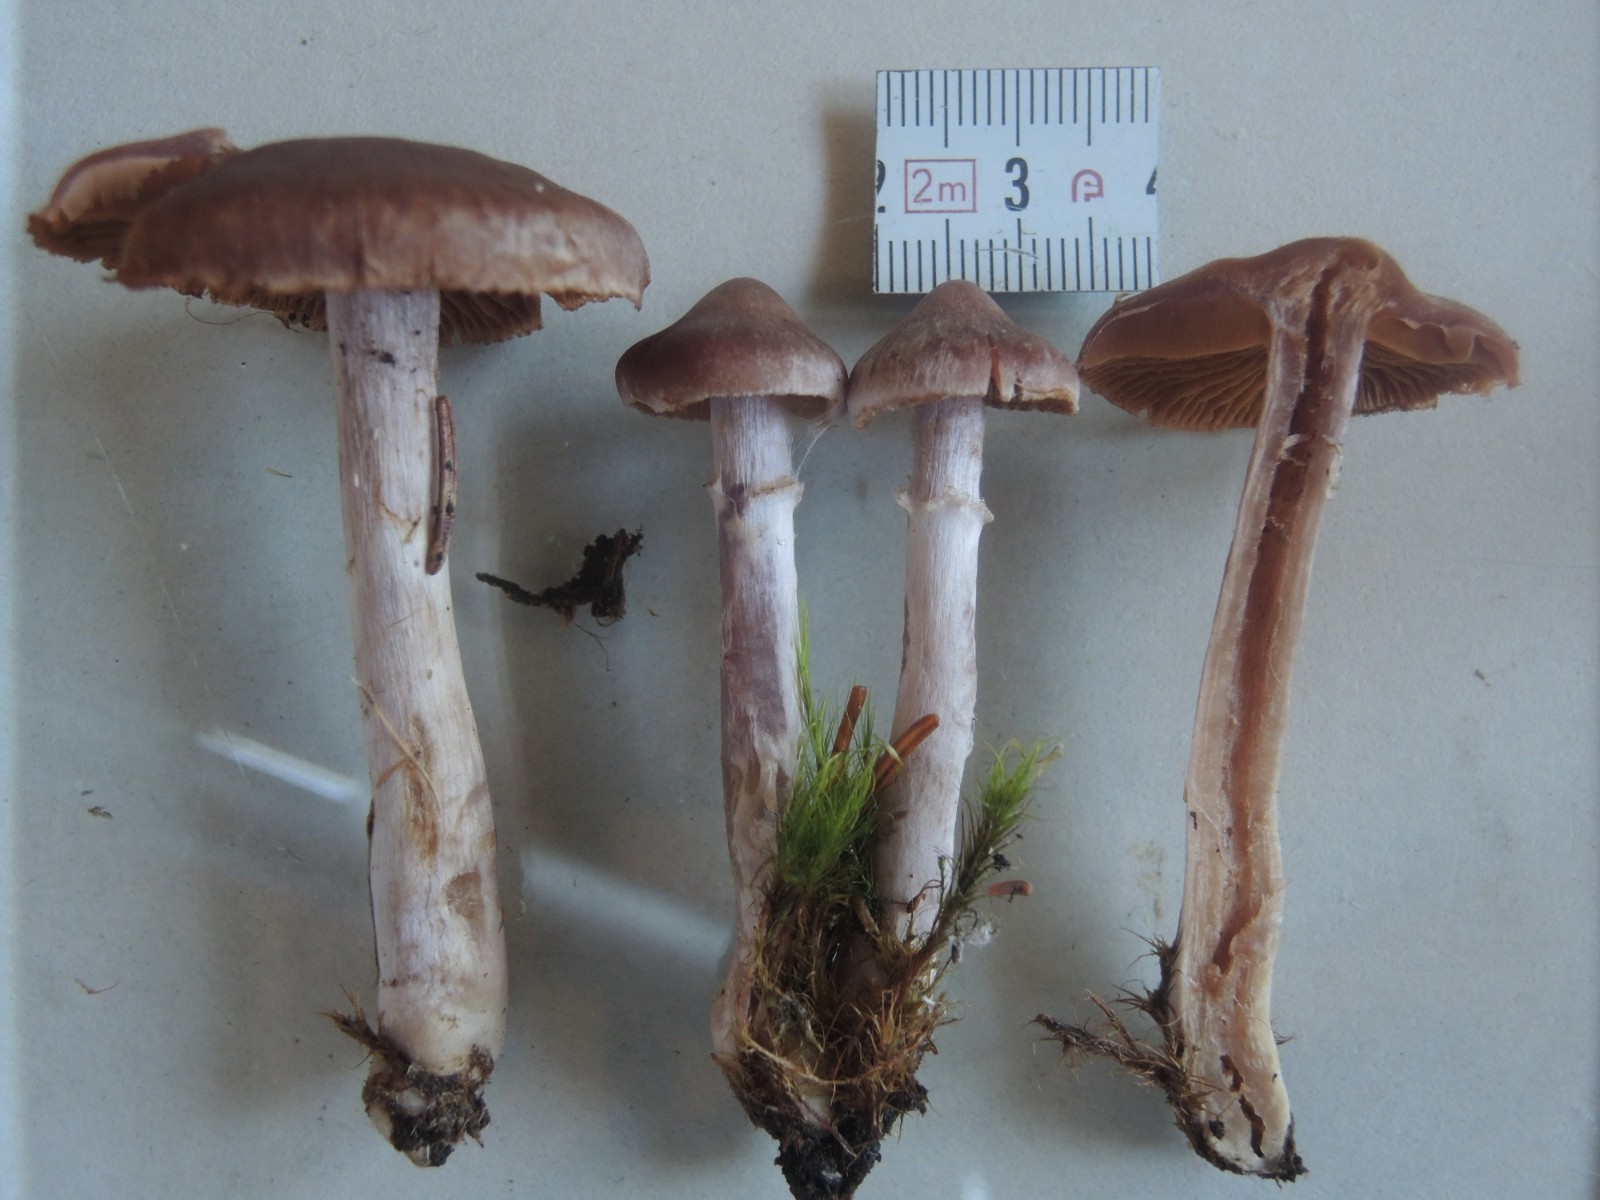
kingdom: Fungi
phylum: Basidiomycota
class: Agaricomycetes
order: Agaricales
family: Cortinariaceae
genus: Cortinarius
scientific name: Cortinarius
